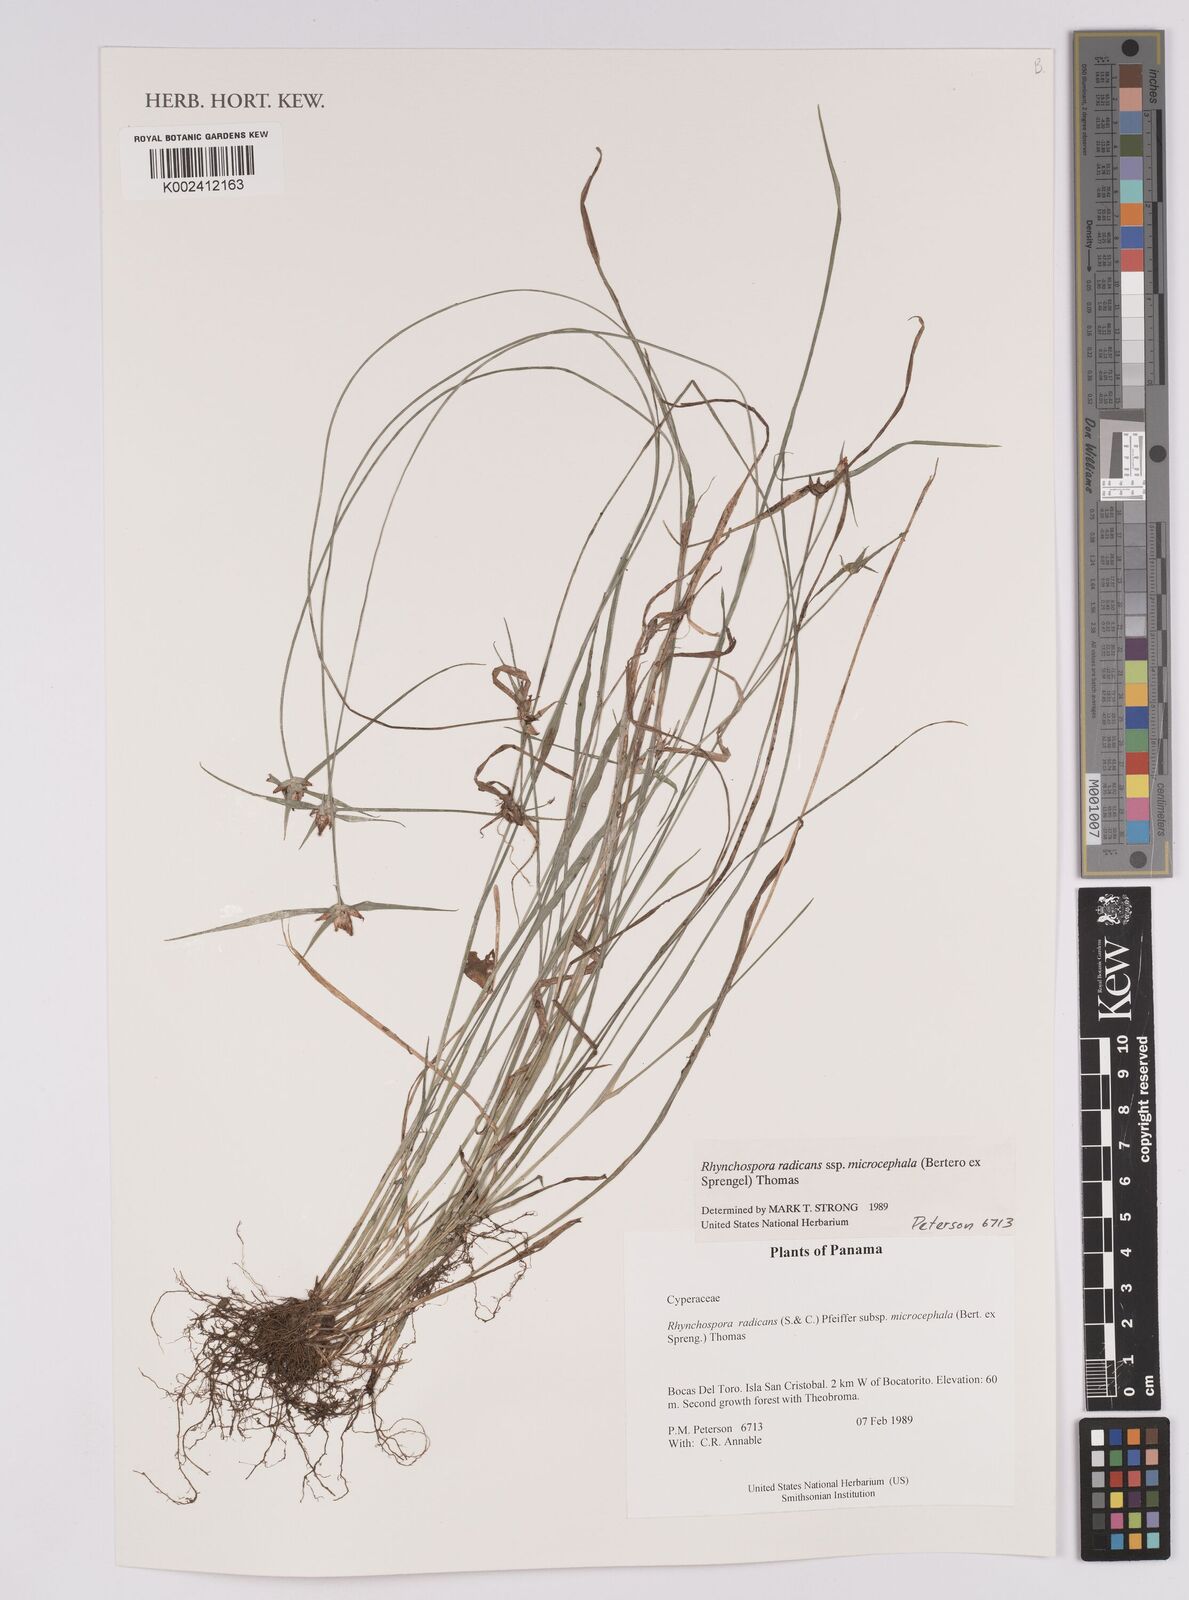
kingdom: Plantae
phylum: Tracheophyta
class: Liliopsida
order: Poales
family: Cyperaceae
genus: Rhynchospora
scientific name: Rhynchospora radicans
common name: Tropical whitetop
